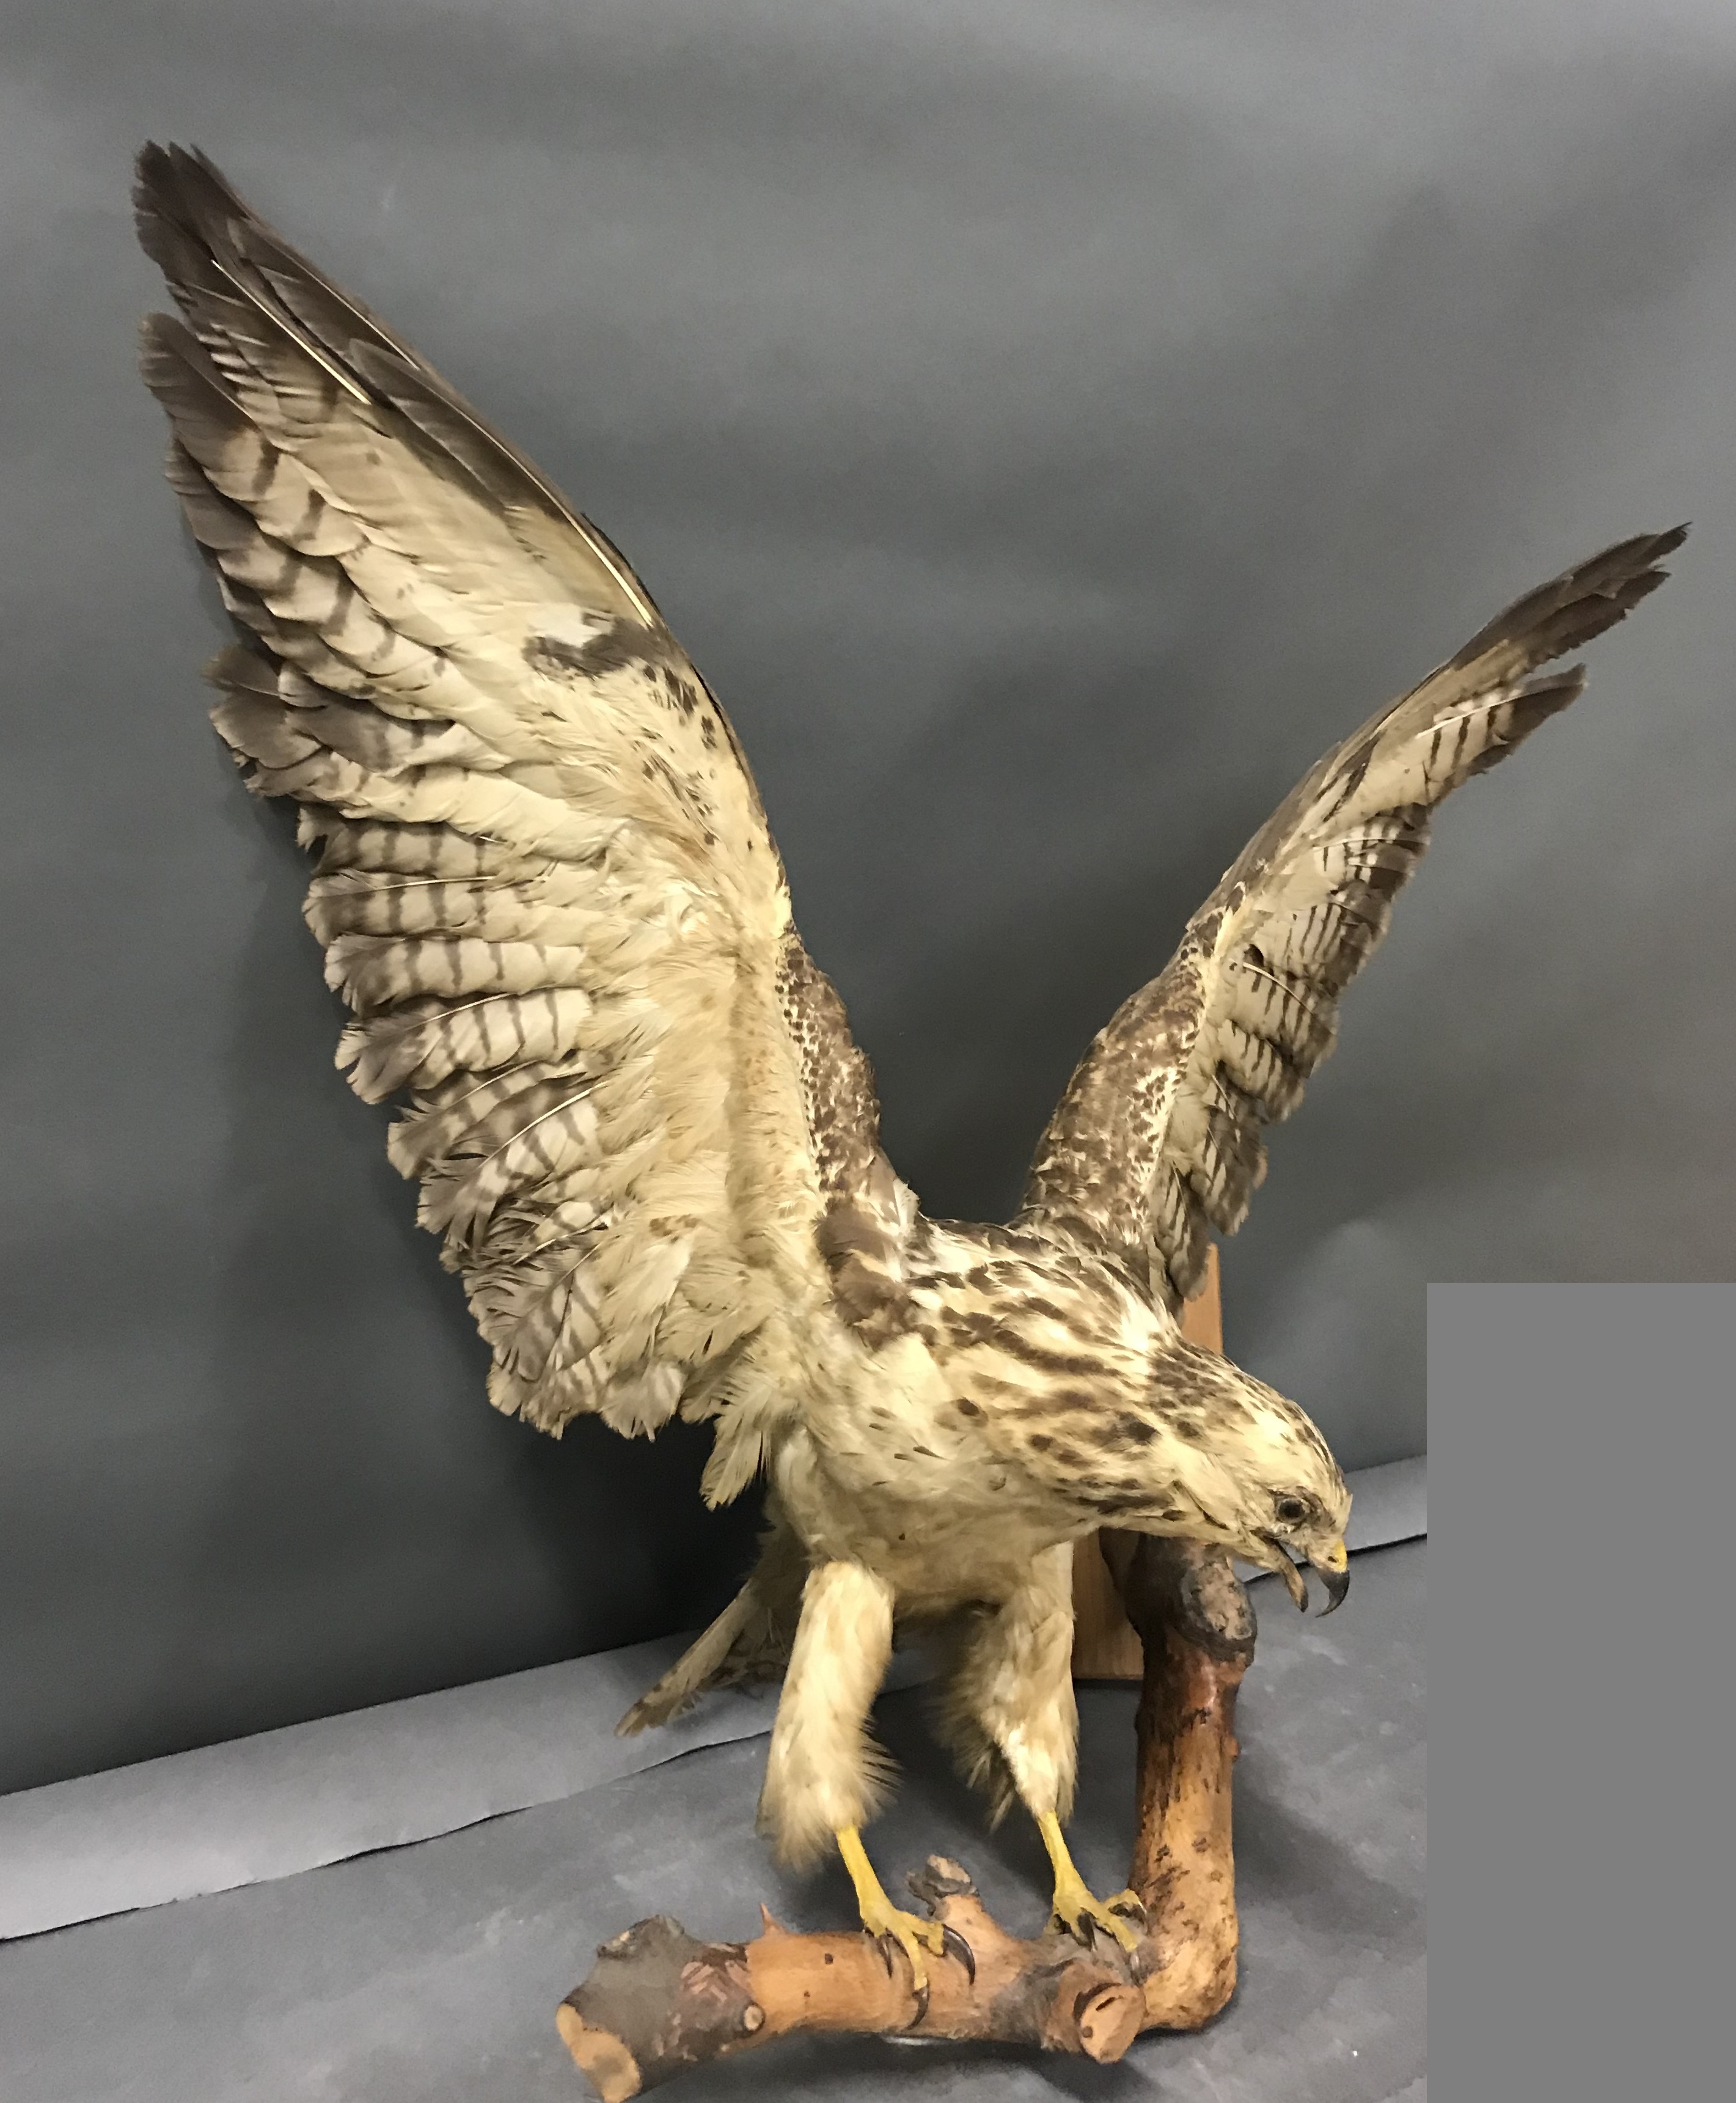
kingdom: Animalia
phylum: Chordata
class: Aves
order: Accipitriformes
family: Accipitridae
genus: Buteo
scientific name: Buteo buteo
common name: Common buzzard
